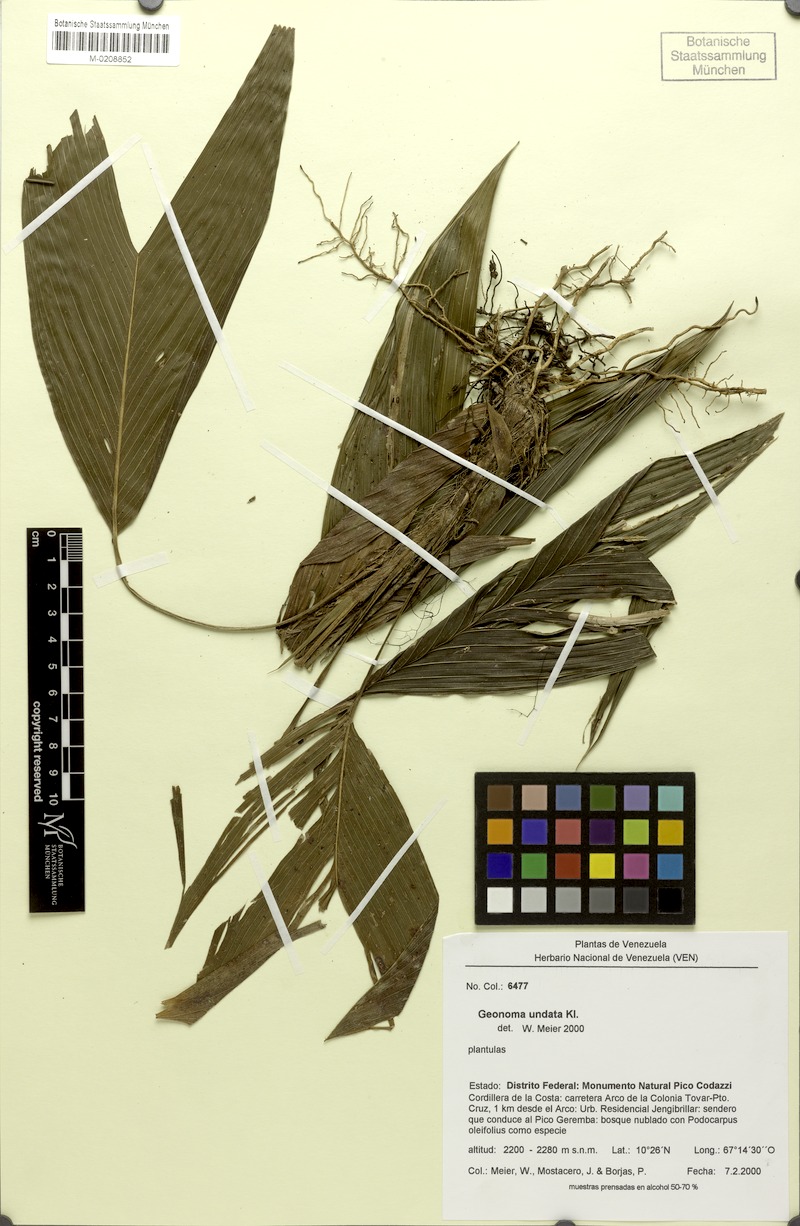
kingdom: Plantae
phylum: Tracheophyta
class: Liliopsida
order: Arecales
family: Arecaceae
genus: Geonoma
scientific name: Geonoma undata
